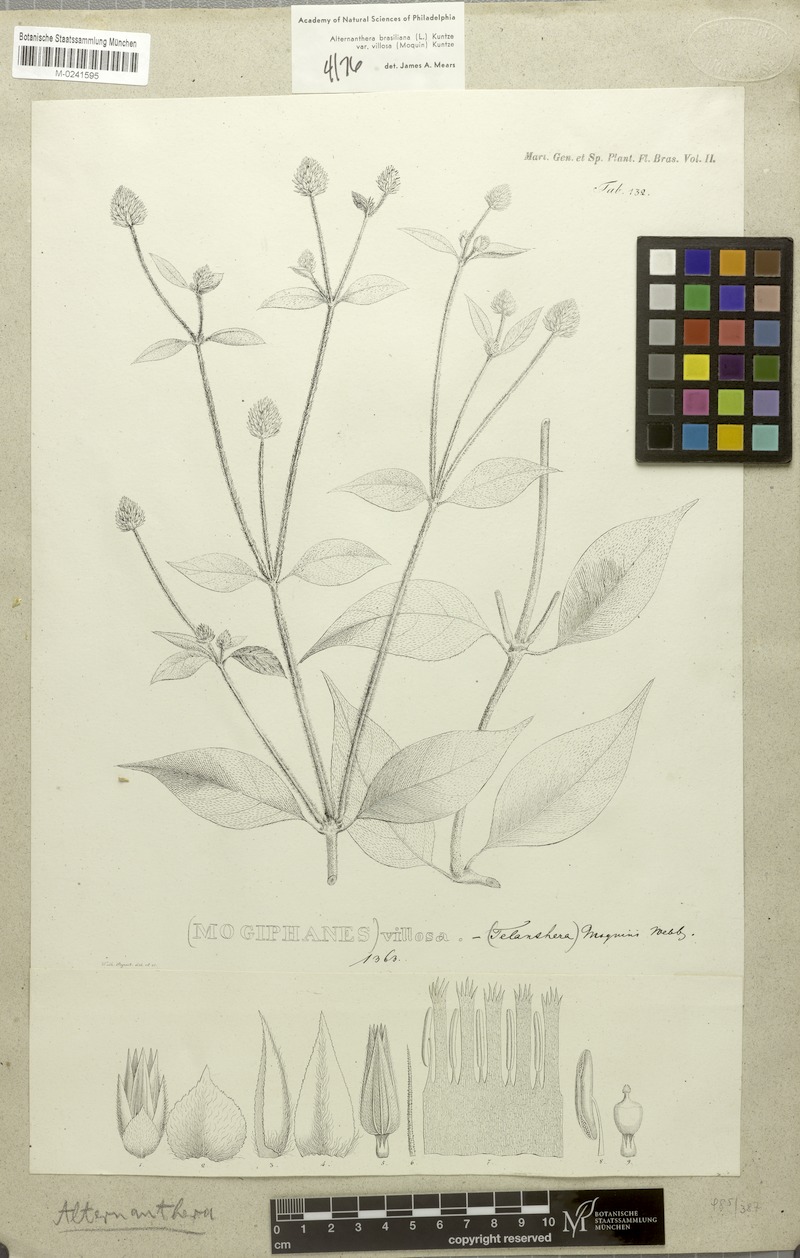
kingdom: Plantae
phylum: Tracheophyta
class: Magnoliopsida
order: Caryophyllales
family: Amaranthaceae
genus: Alternanthera
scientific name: Alternanthera ramosissima
